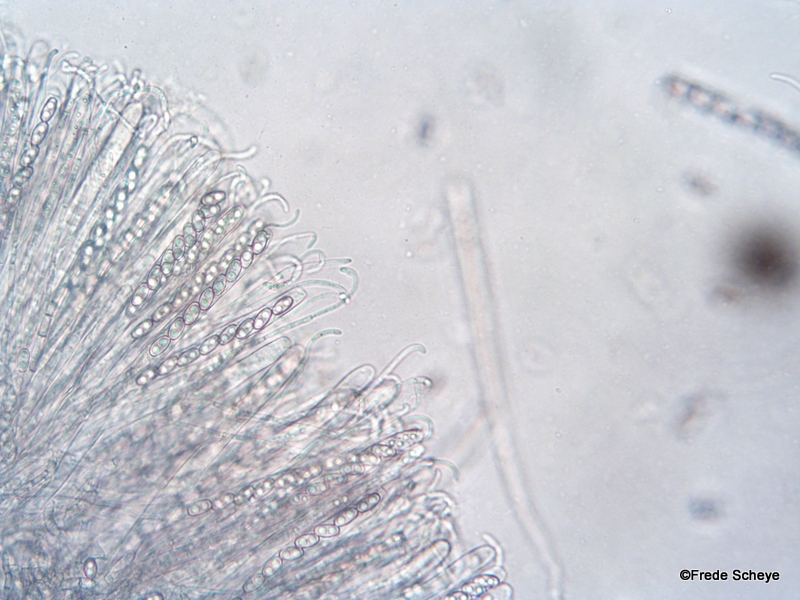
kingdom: Fungi
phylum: Ascomycota
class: Pezizomycetes
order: Pezizales
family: Otideaceae
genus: Otidea
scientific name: Otidea onotica
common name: æsel-ørebæger
